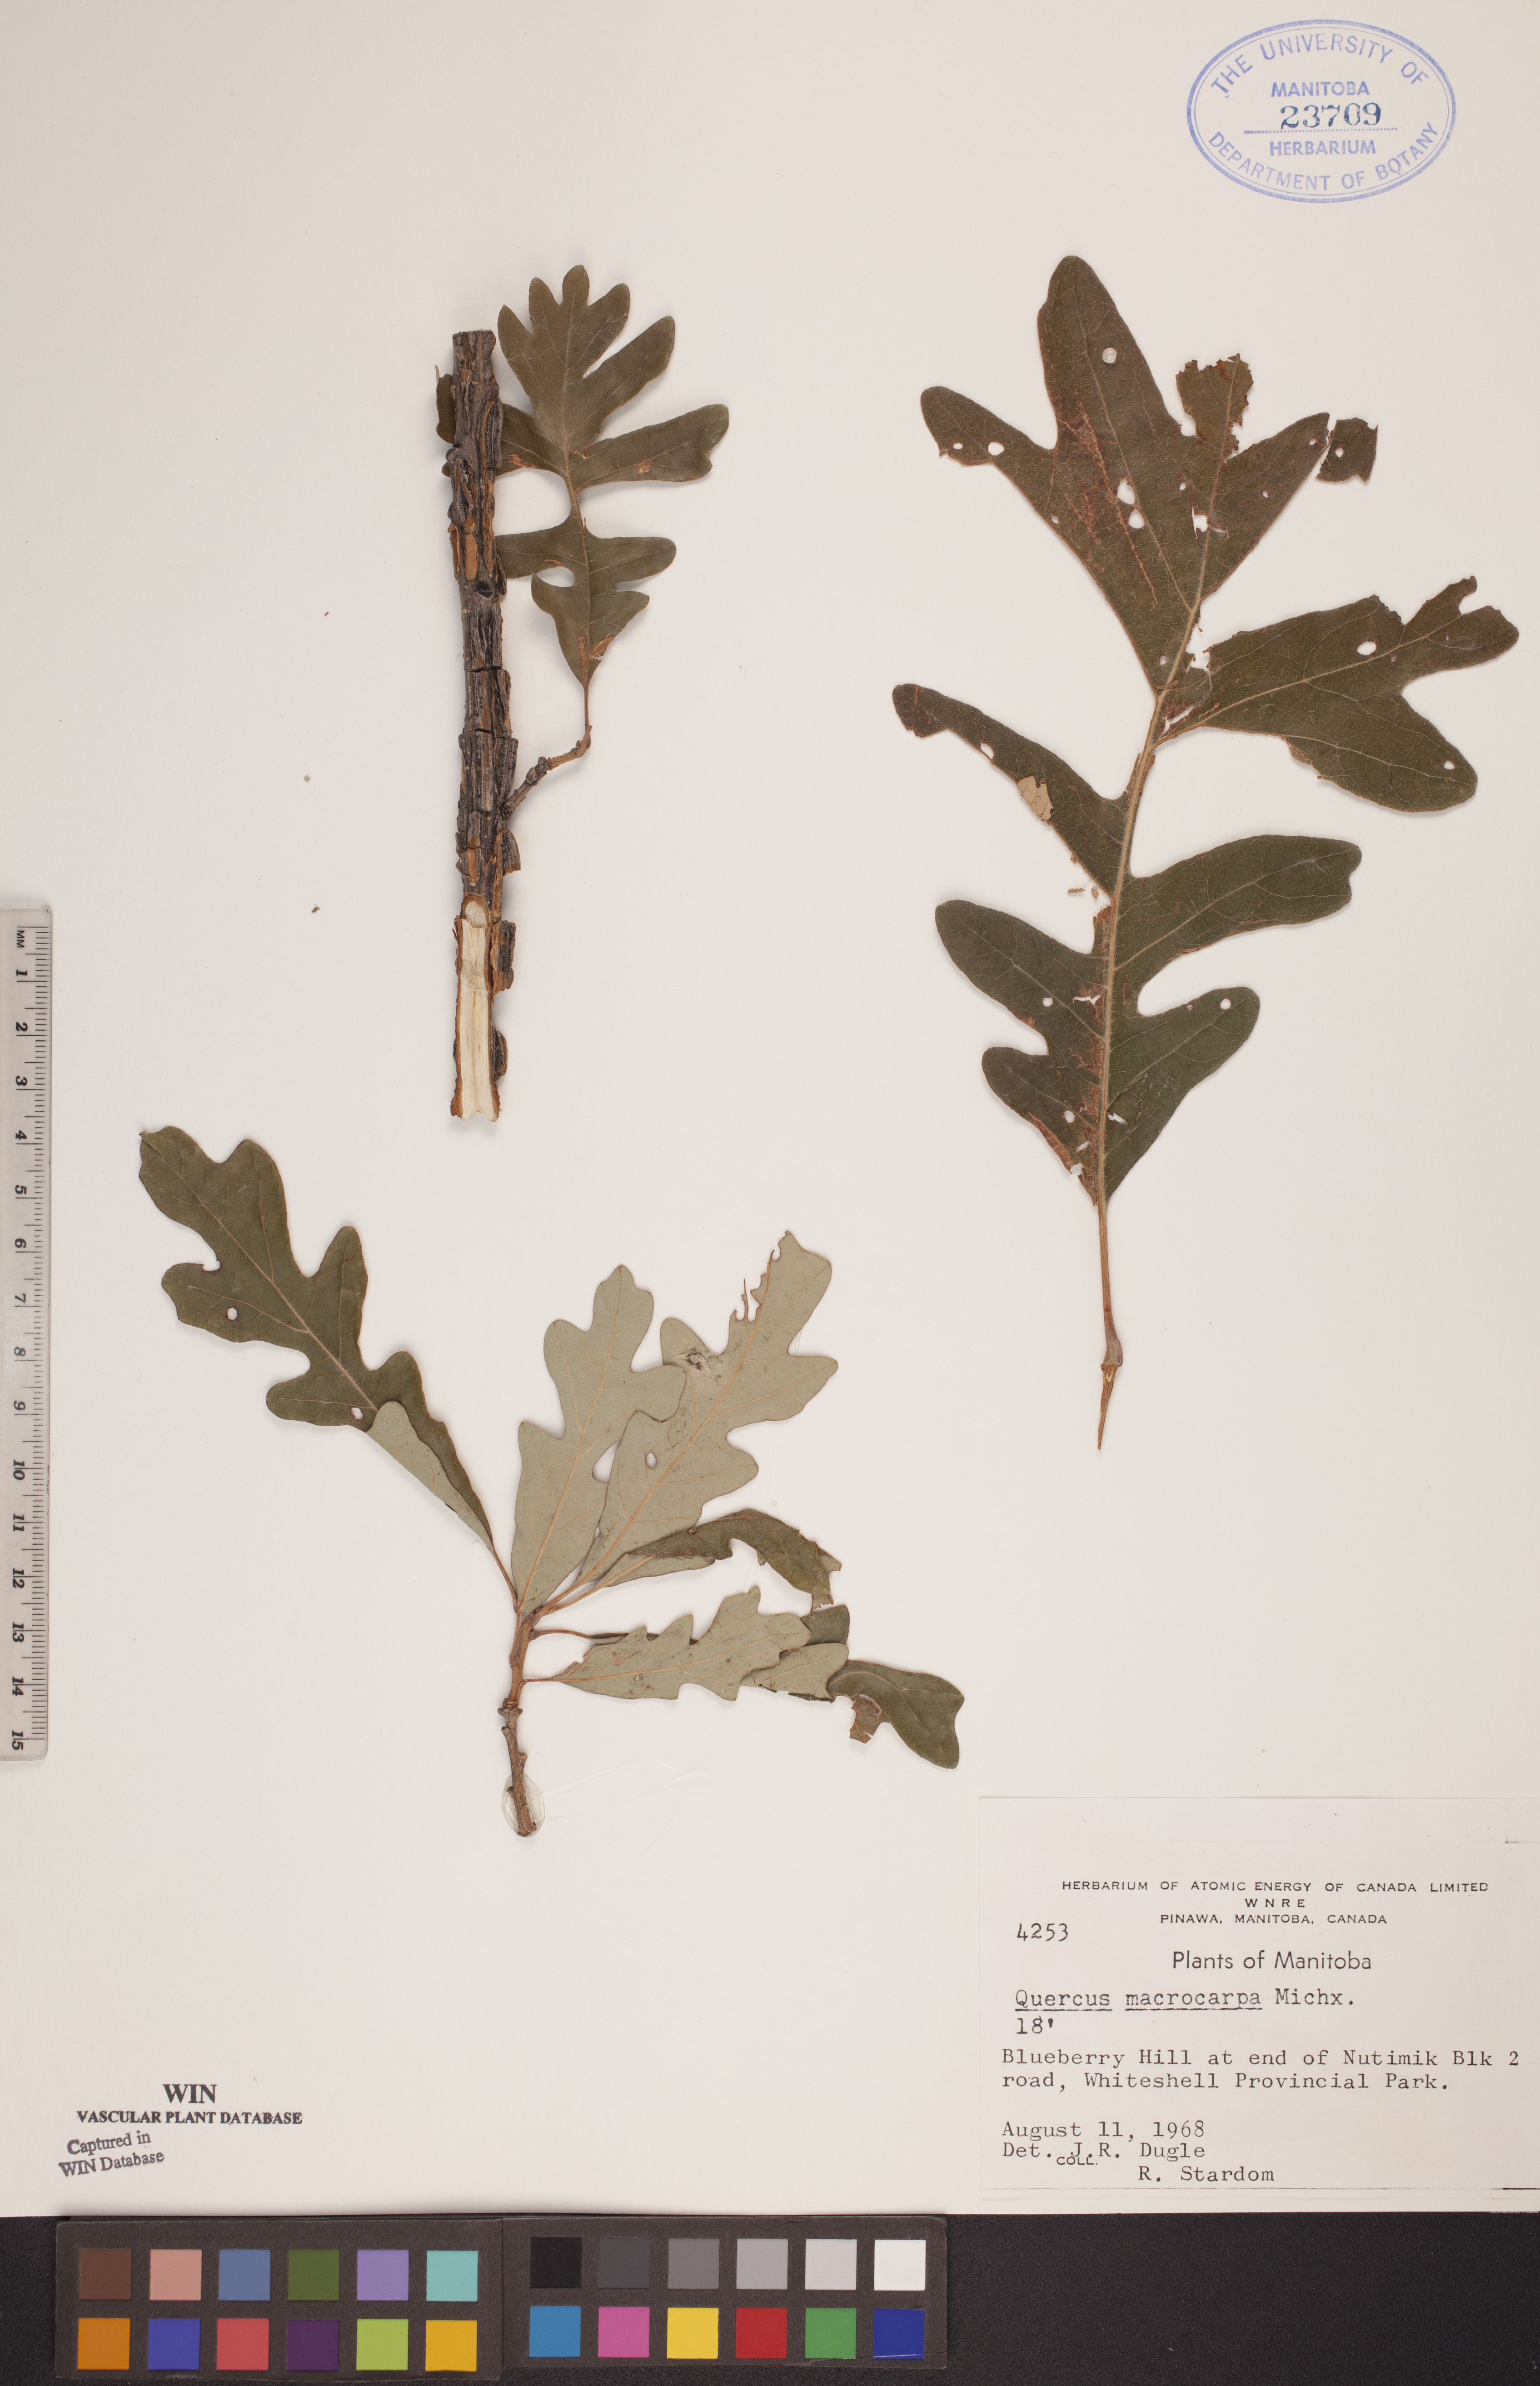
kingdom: Plantae
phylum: Tracheophyta
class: Magnoliopsida
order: Fagales
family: Fagaceae
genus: Quercus
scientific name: Quercus macrocarpa
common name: Bur oak
